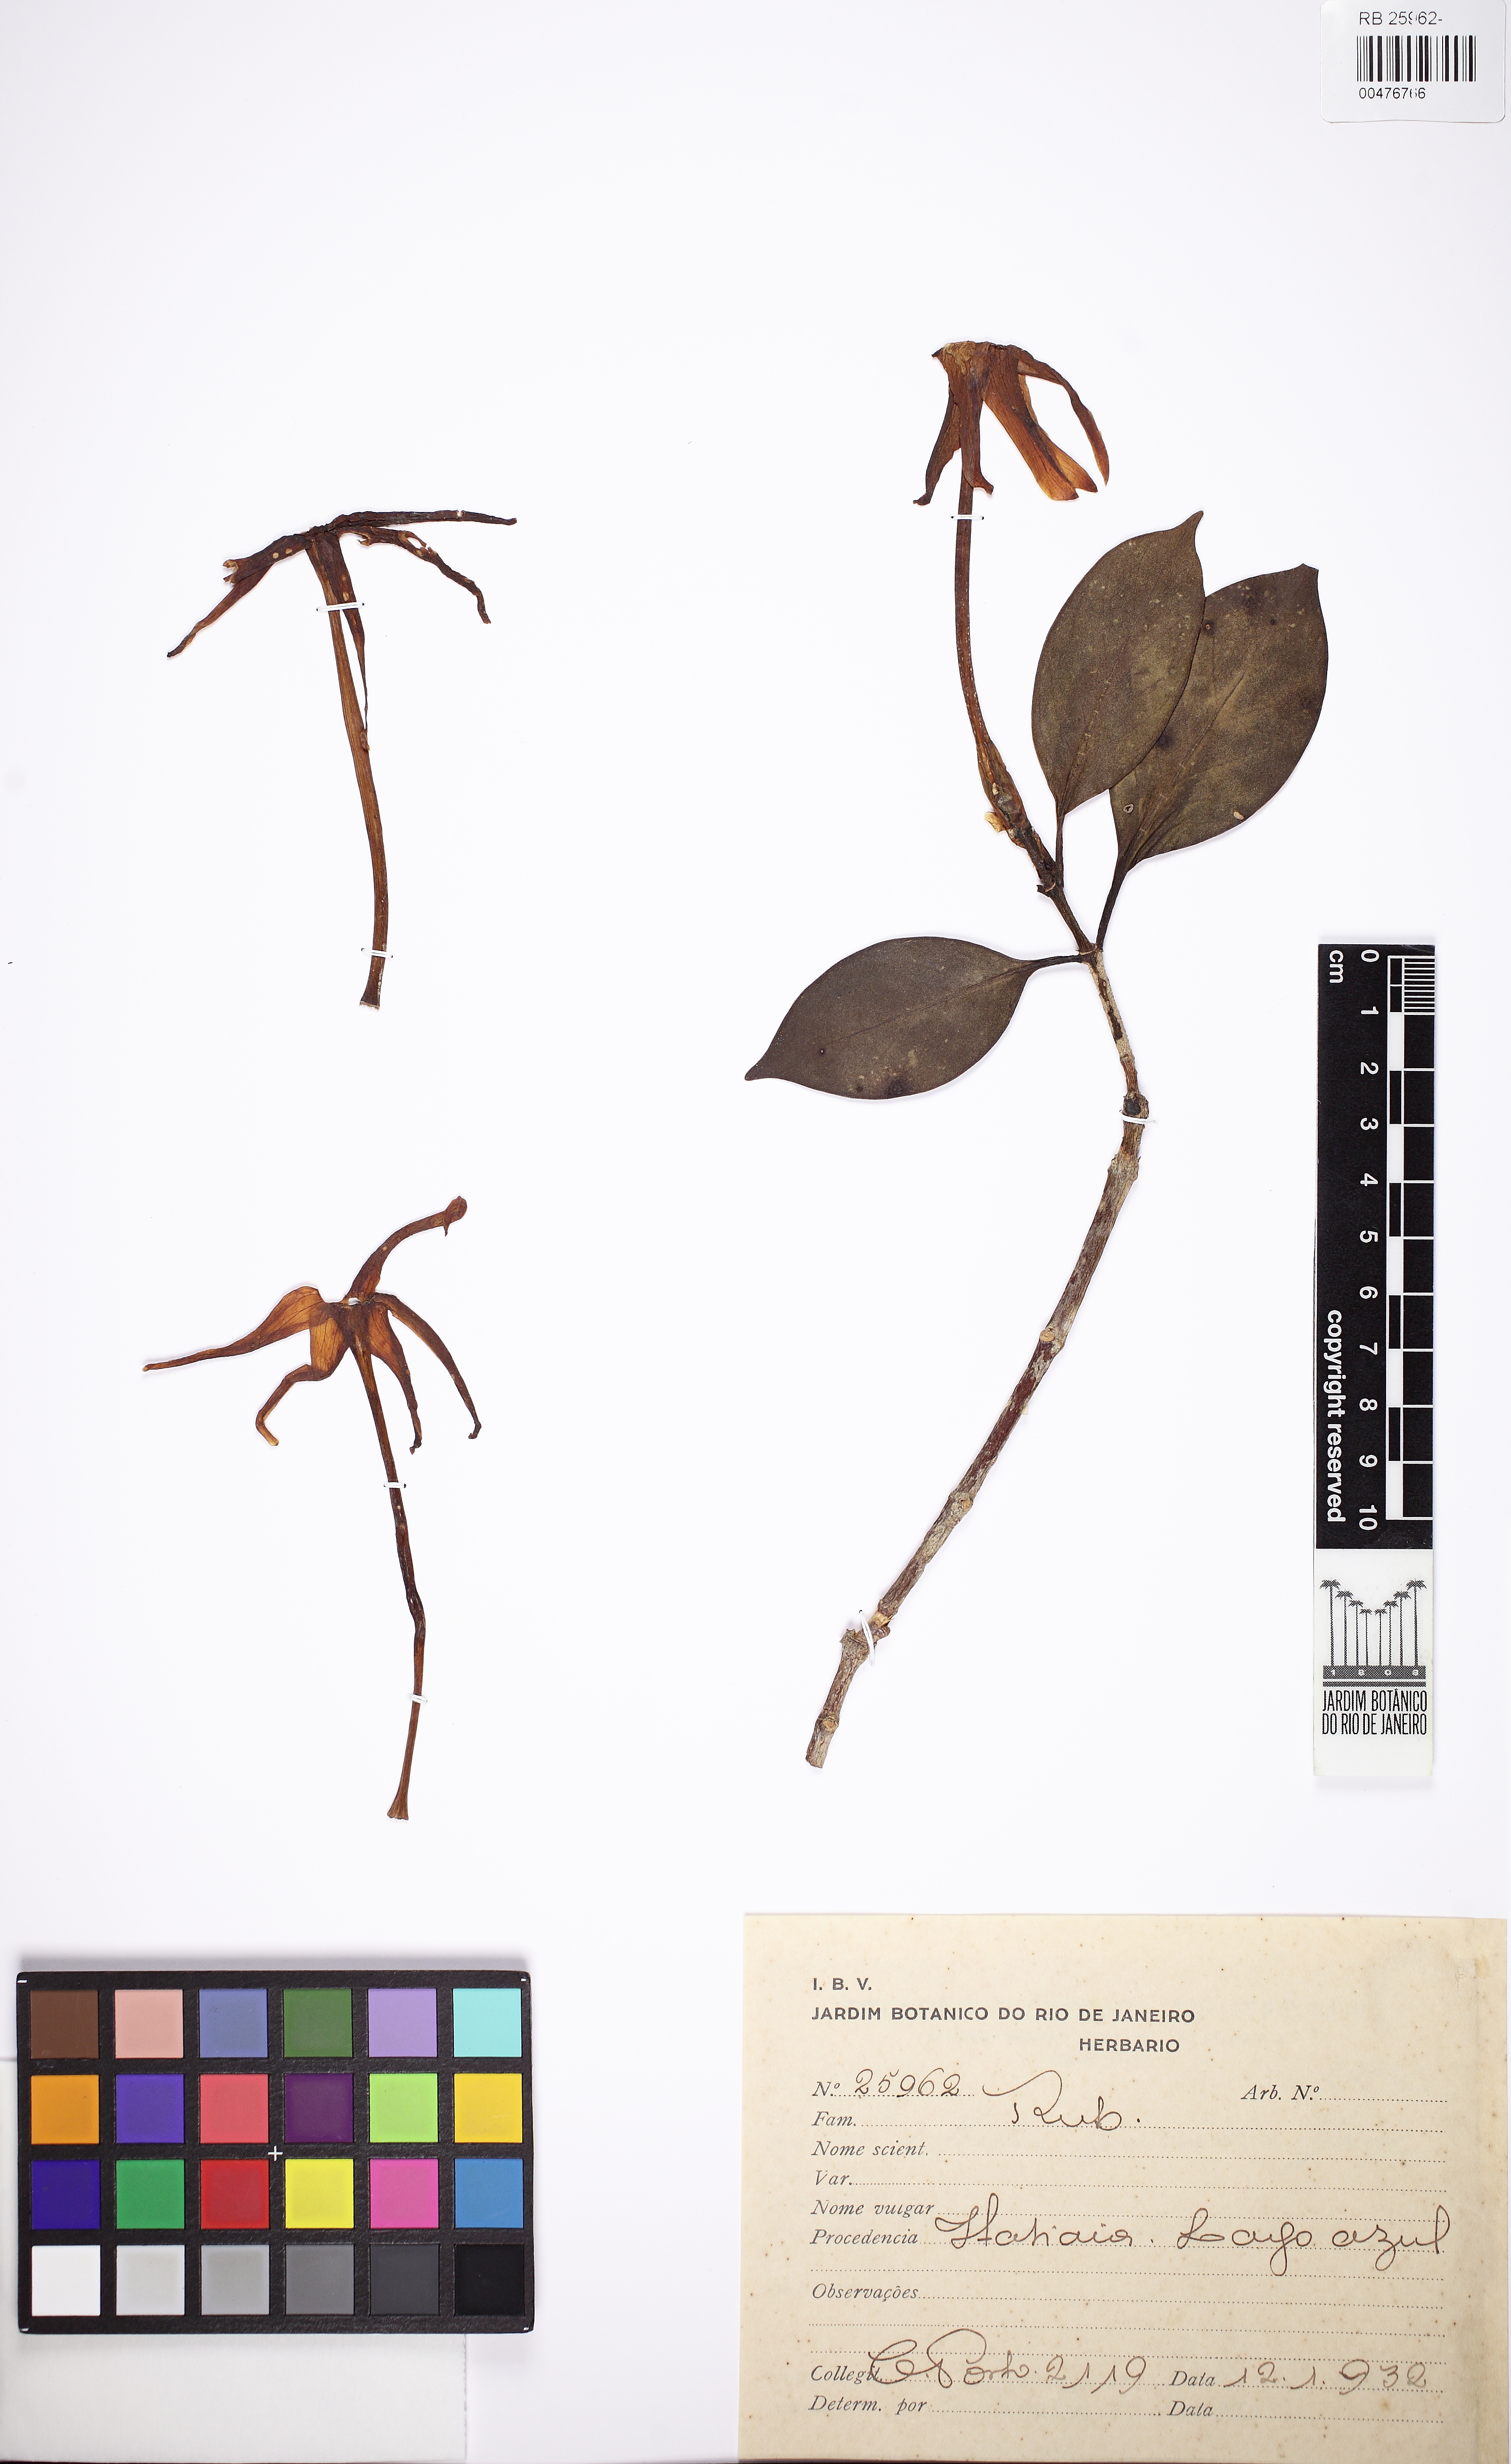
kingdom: Plantae
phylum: Tracheophyta
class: Magnoliopsida
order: Gentianales
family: Rubiaceae
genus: Hillia
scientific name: Hillia parasitica
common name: Morning star
